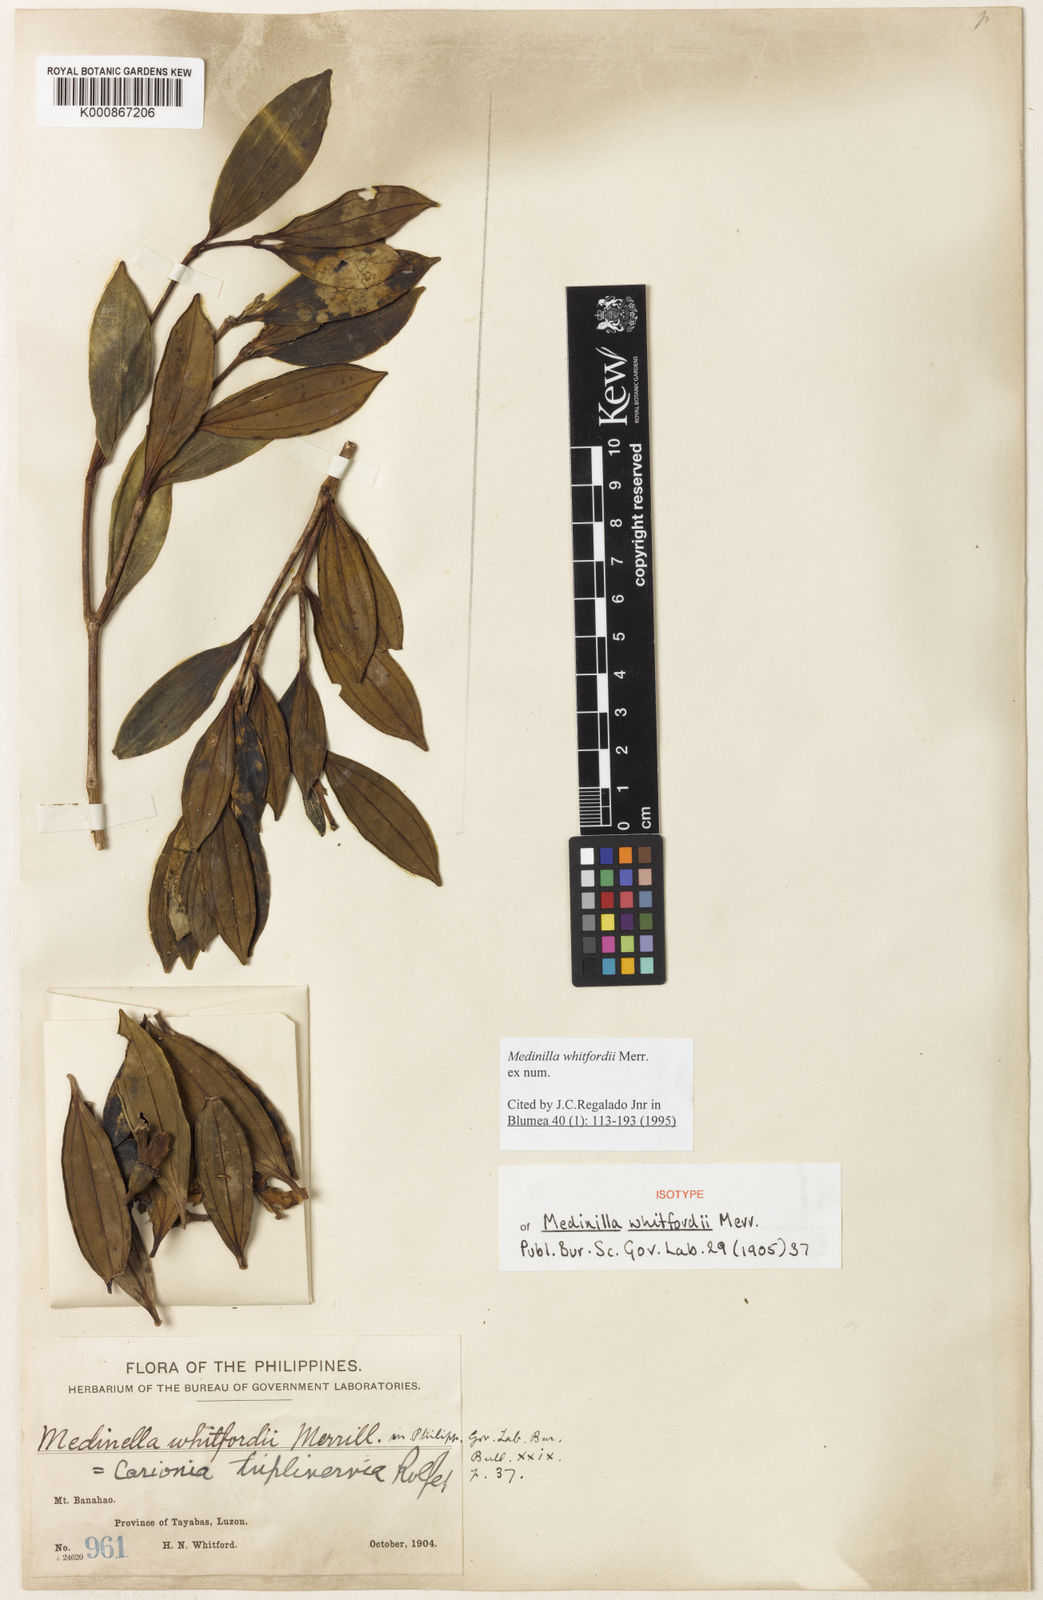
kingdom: Plantae
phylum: Tracheophyta
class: Magnoliopsida
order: Myrtales
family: Melastomataceae
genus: Medinilla
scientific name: Medinilla whitfordii
